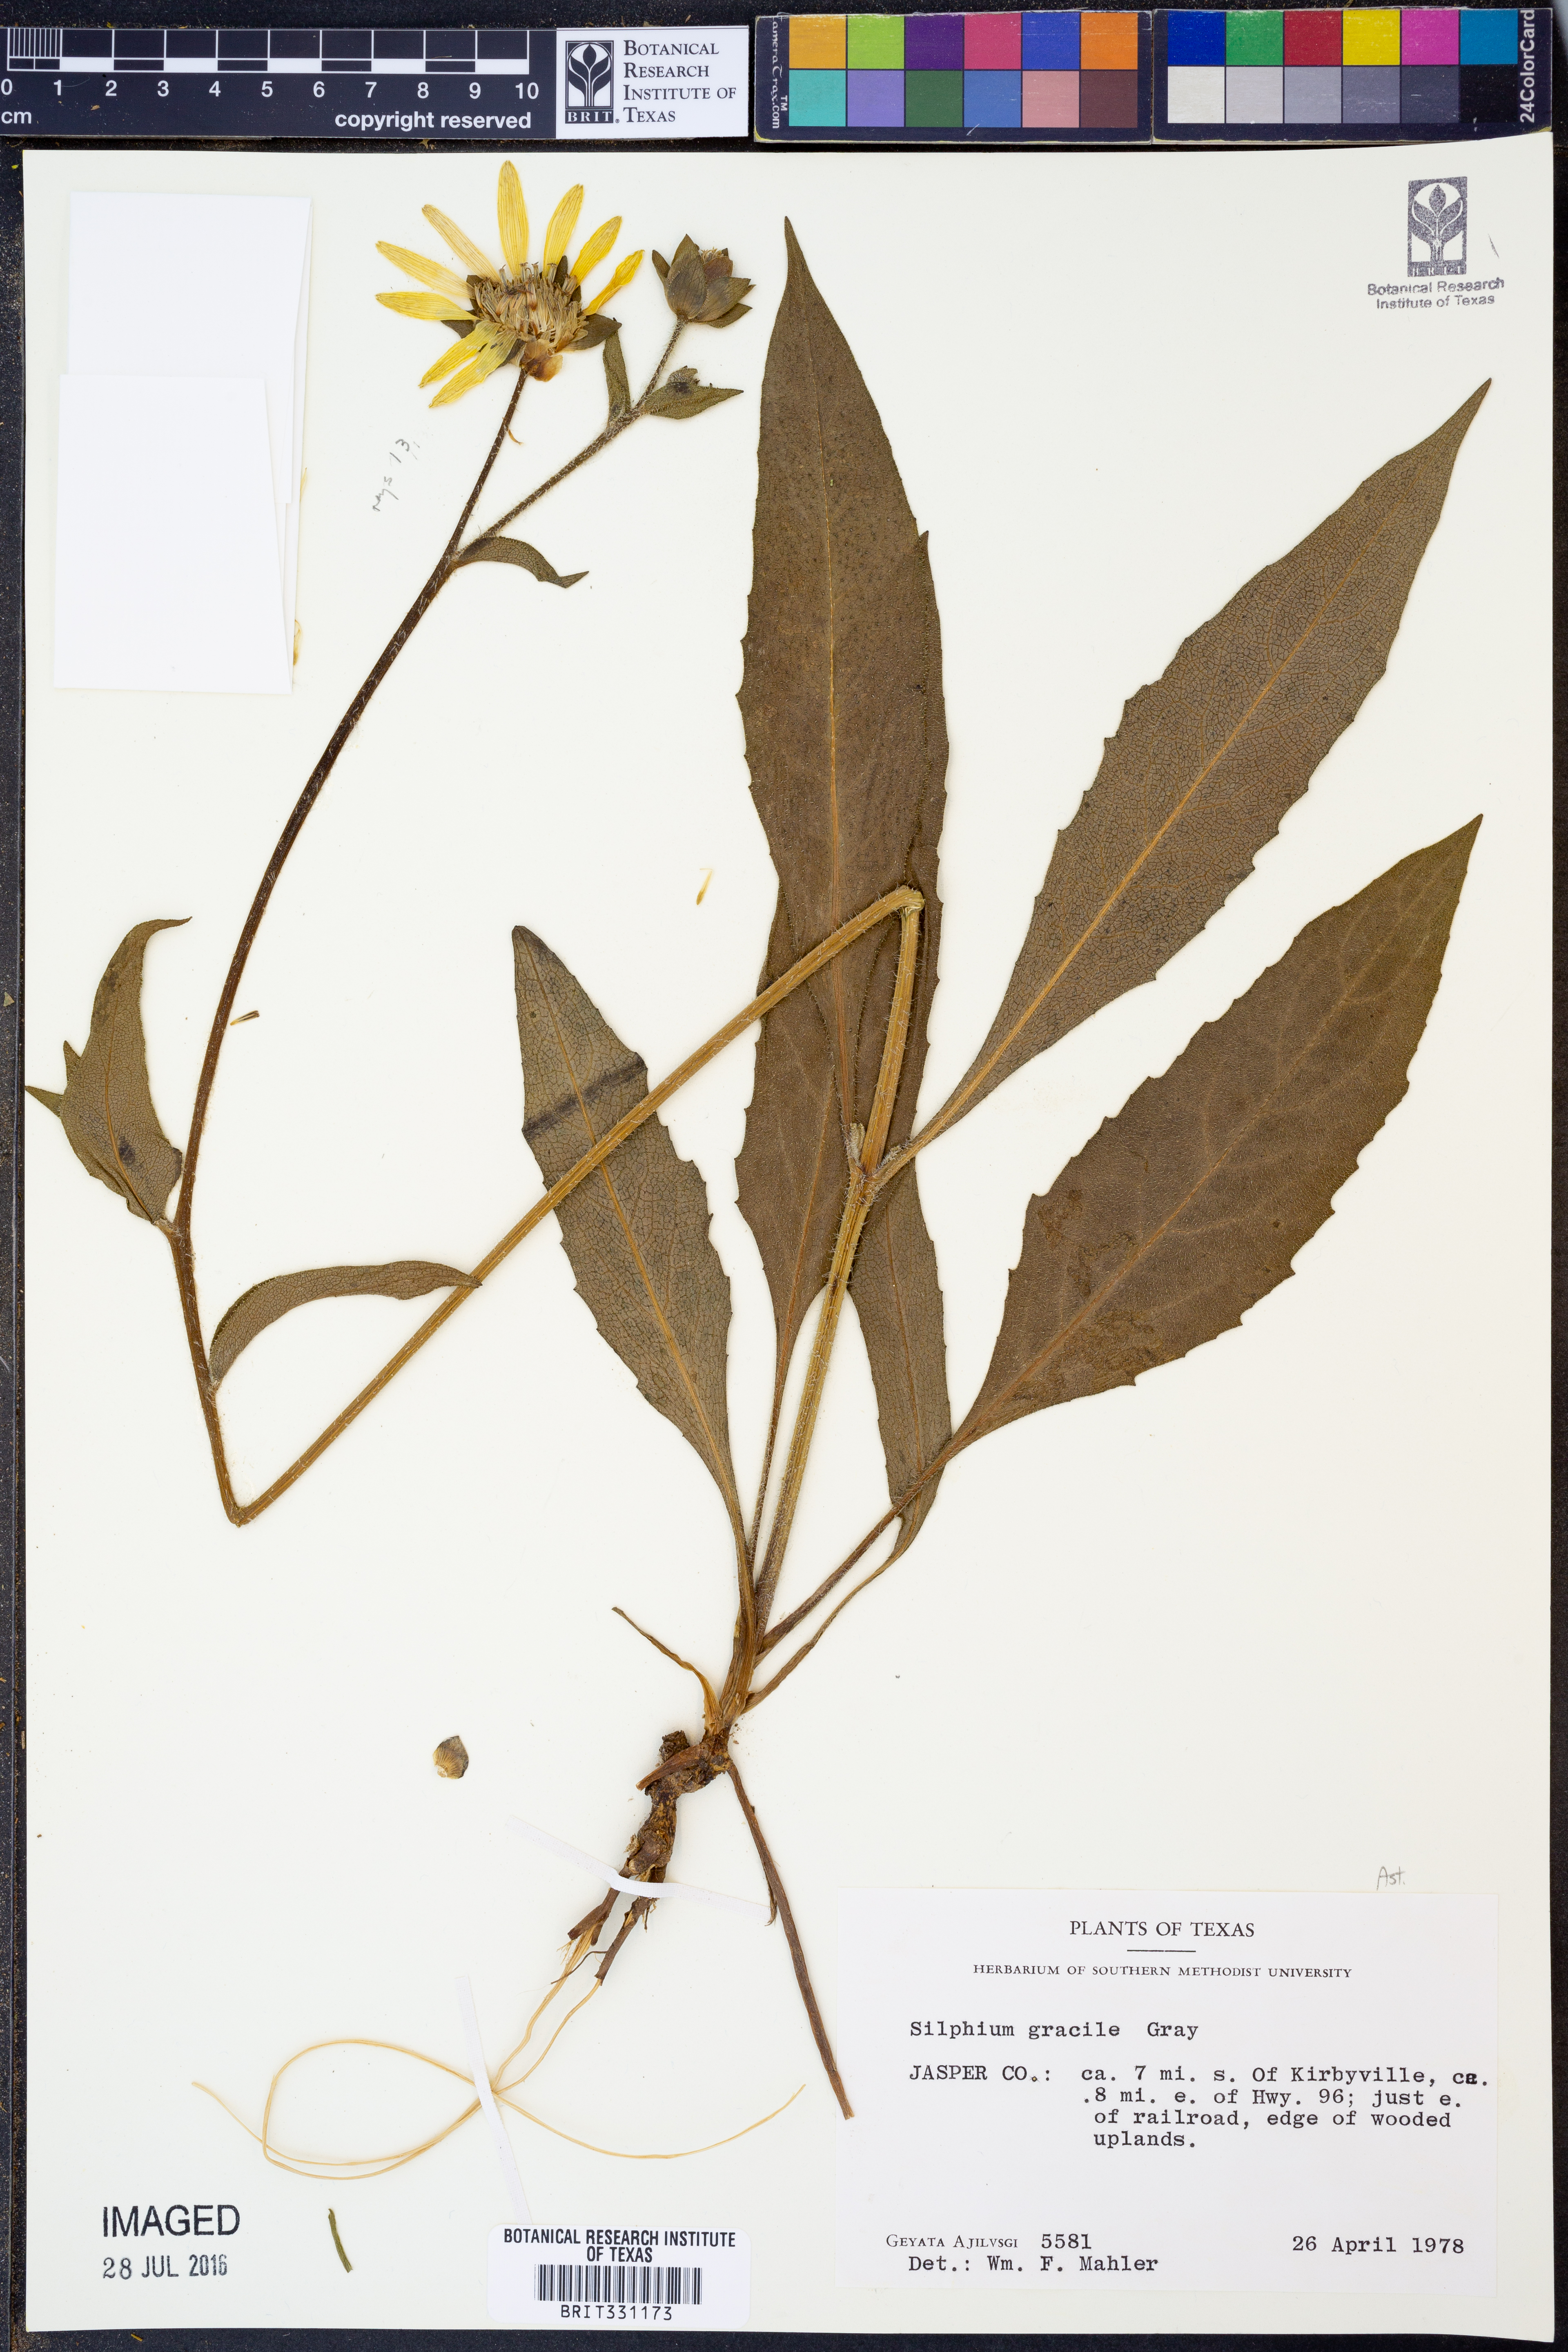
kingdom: Plantae
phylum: Tracheophyta
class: Magnoliopsida
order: Asterales
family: Asteraceae
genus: Silphium
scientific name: Silphium radula
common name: Roughleaf rosinweed
